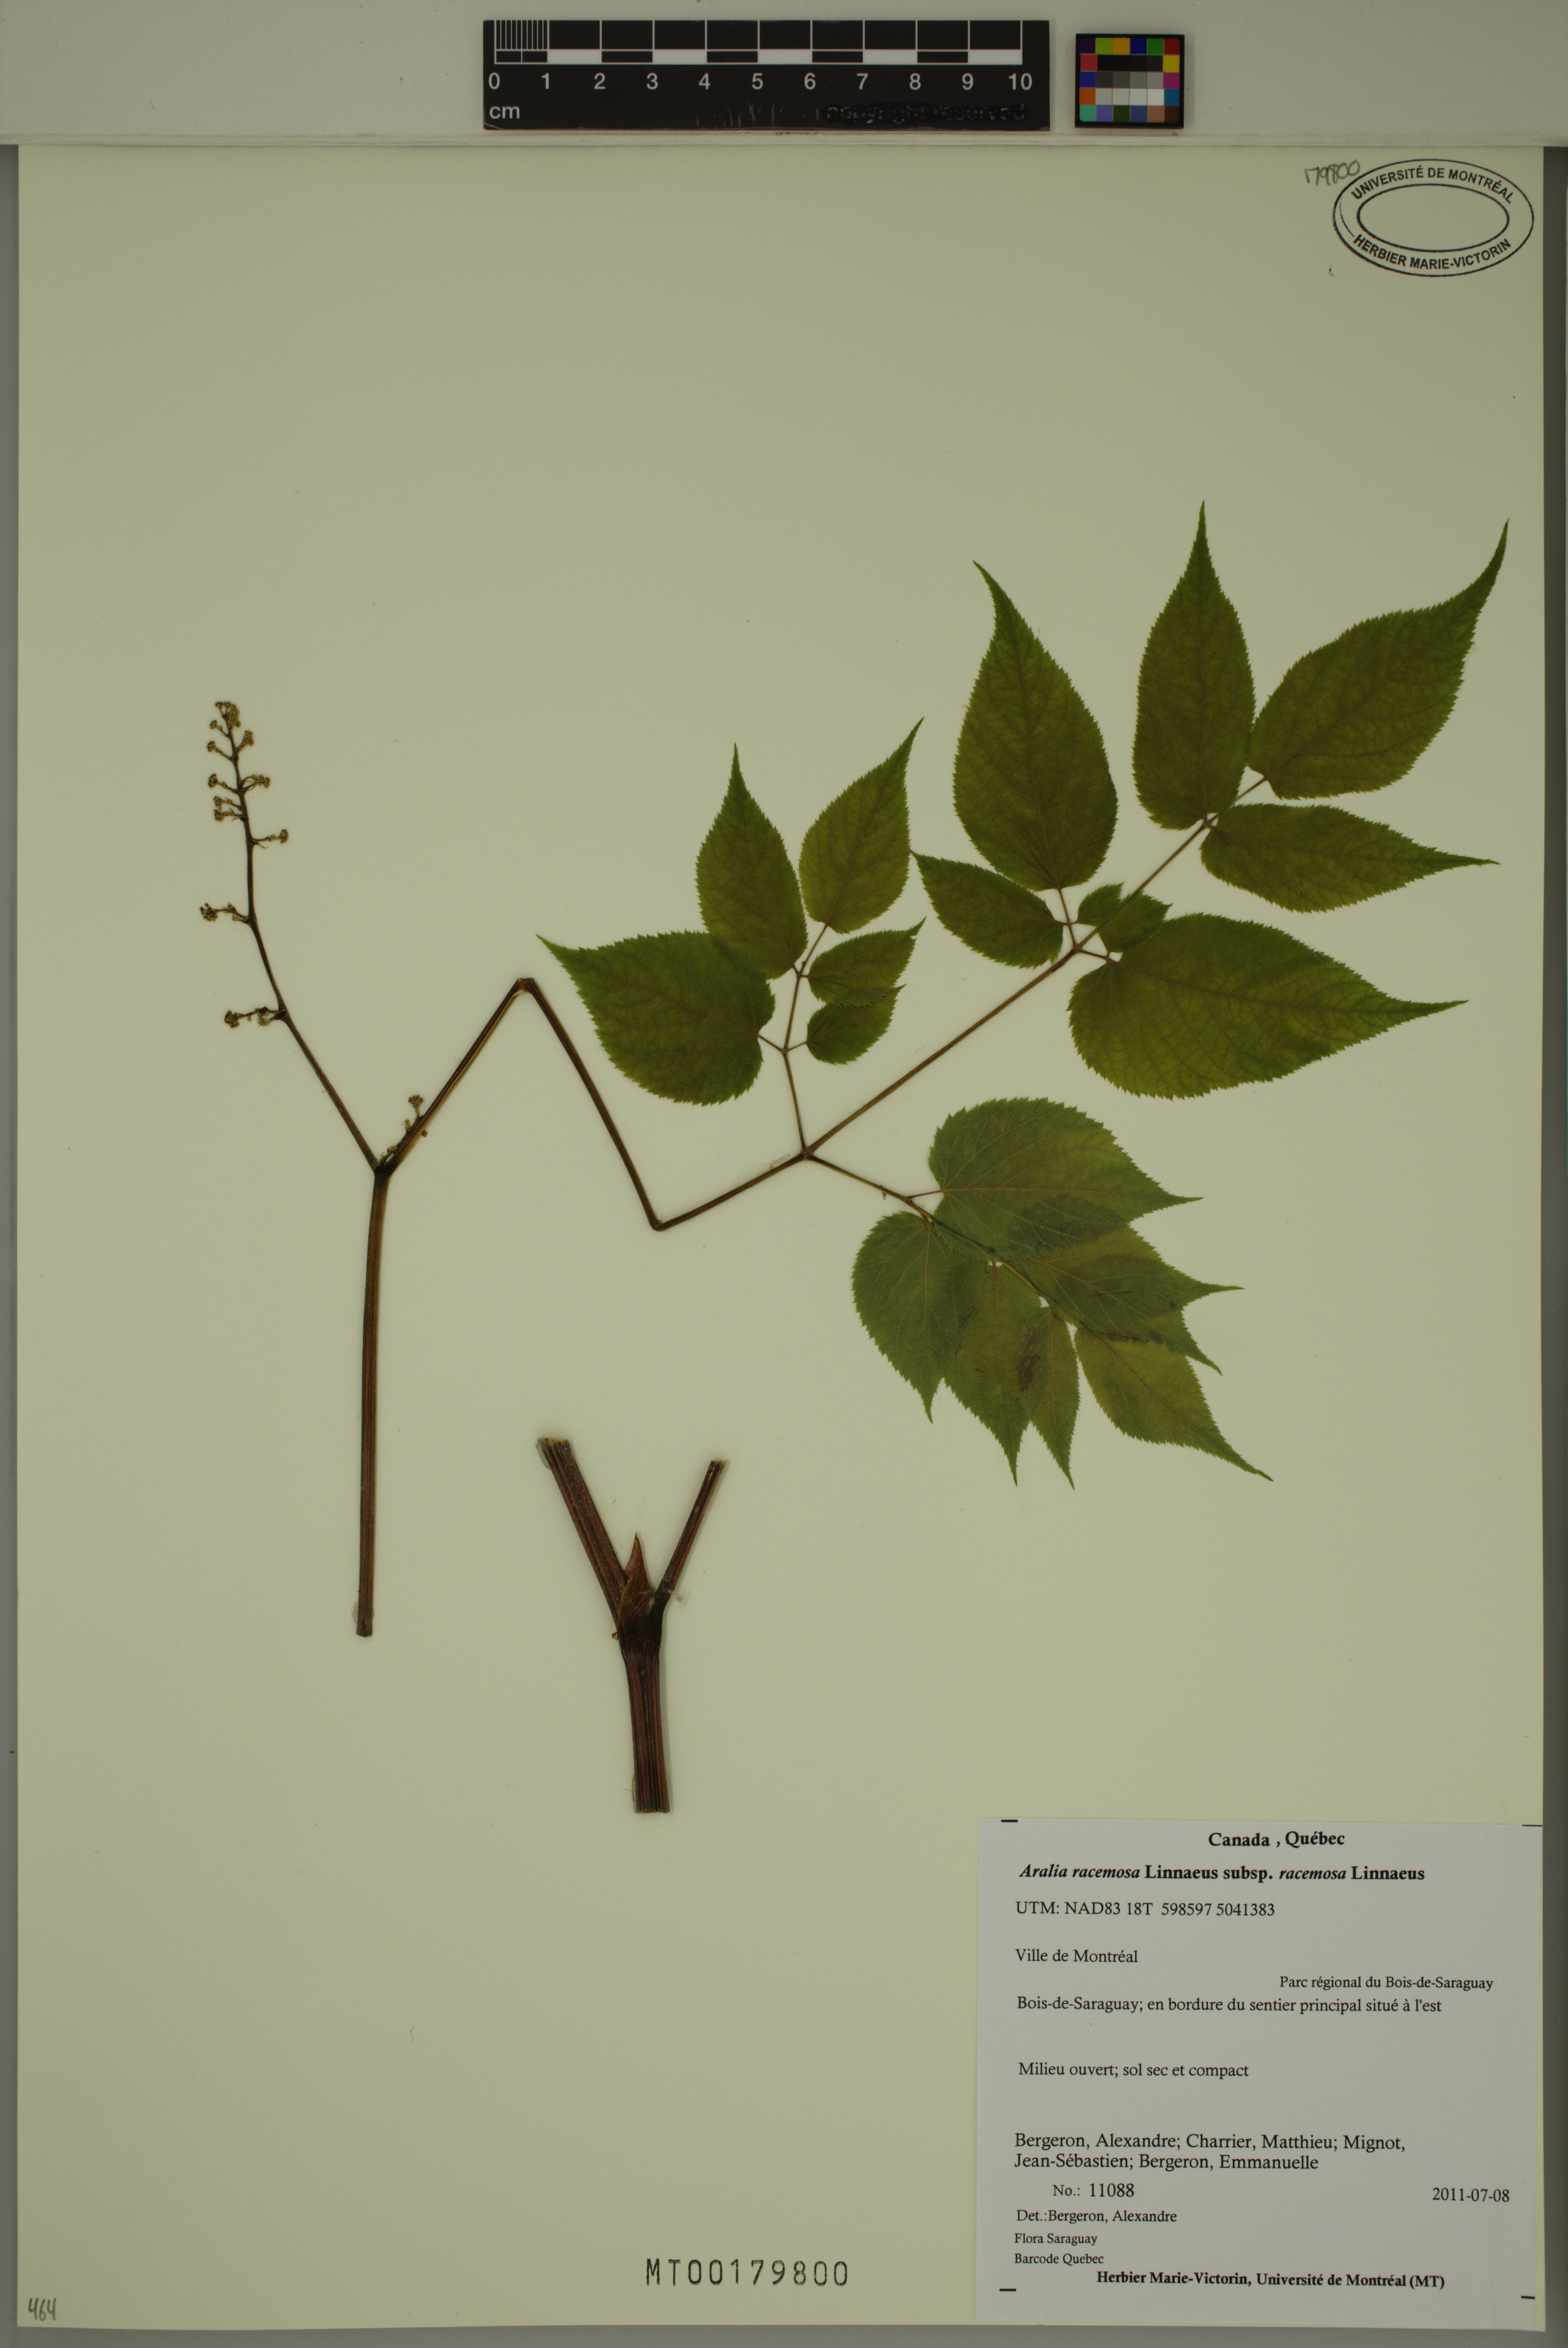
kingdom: Plantae
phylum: Tracheophyta
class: Magnoliopsida
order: Apiales
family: Araliaceae
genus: Aralia
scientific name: Aralia racemosa
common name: American-spikenard
